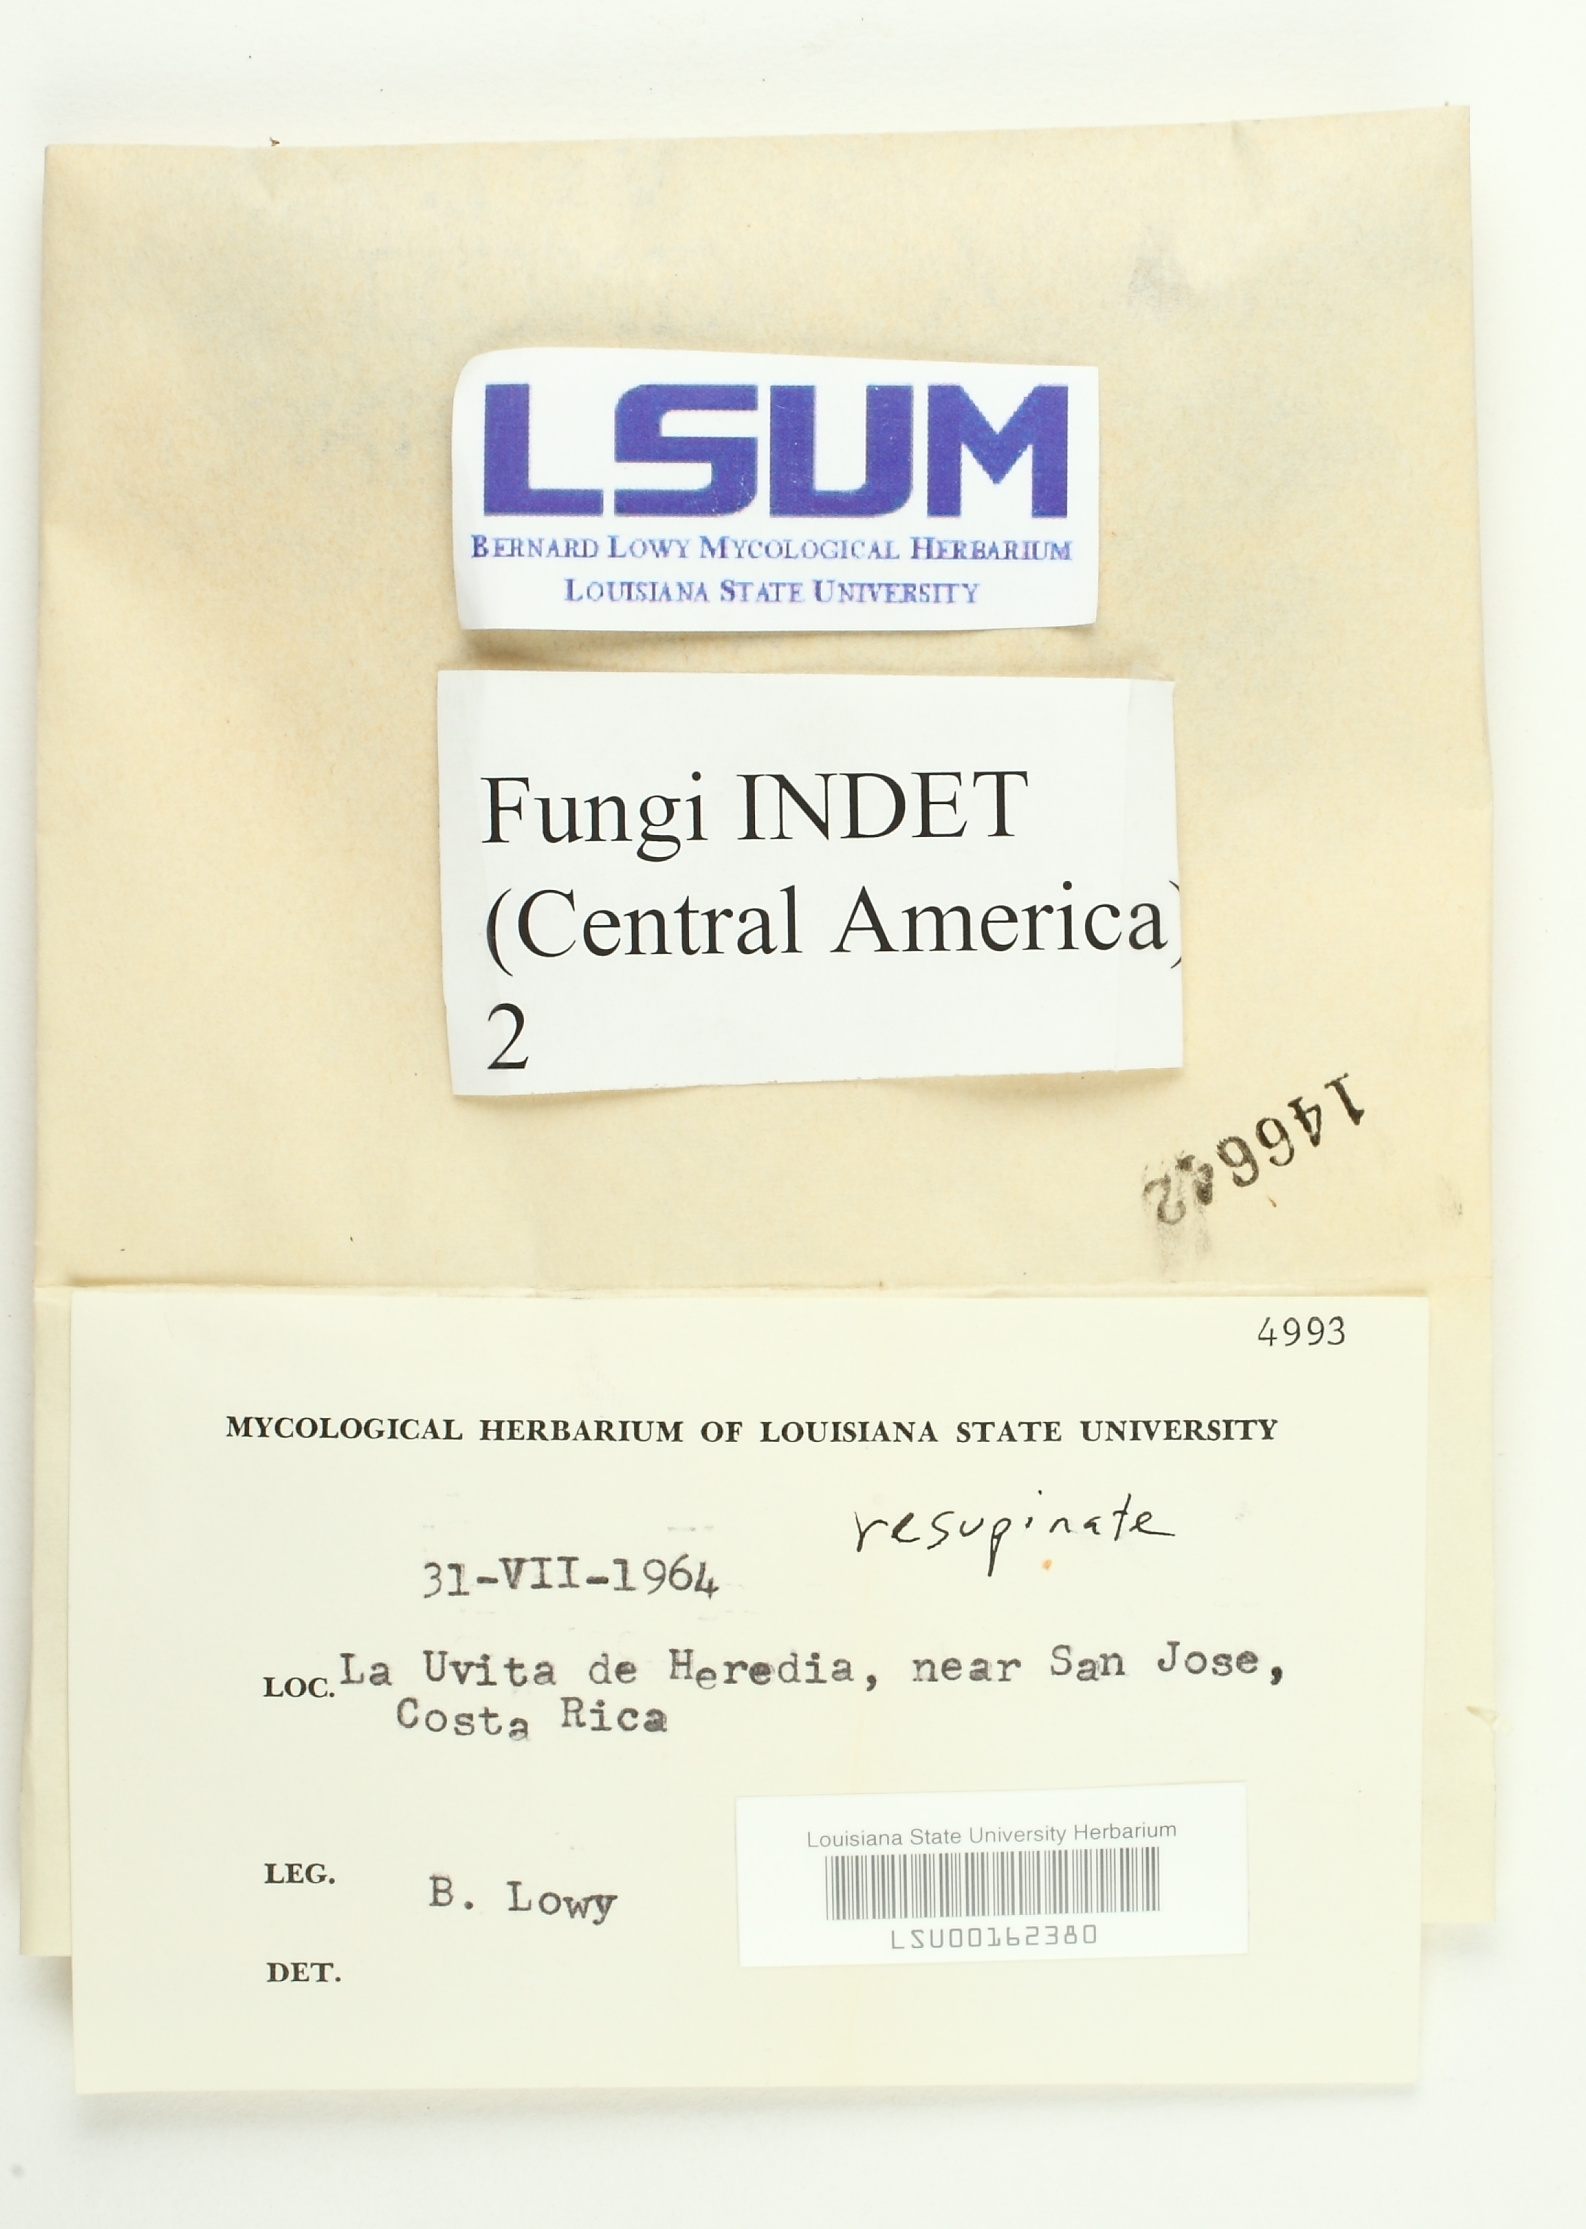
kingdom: Fungi
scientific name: Fungi
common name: Fungi
